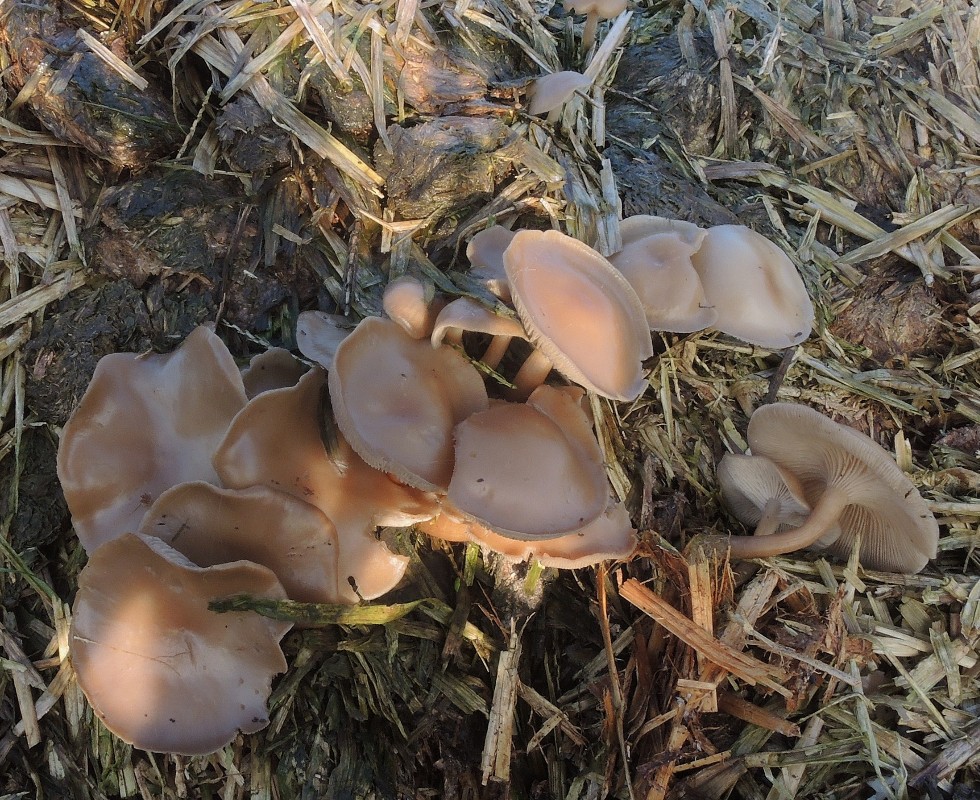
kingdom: Fungi
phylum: Basidiomycota
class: Agaricomycetes
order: Agaricales
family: Tricholomataceae
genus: Clitocybe
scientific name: Clitocybe amarescens
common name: gødnings-tragthat
